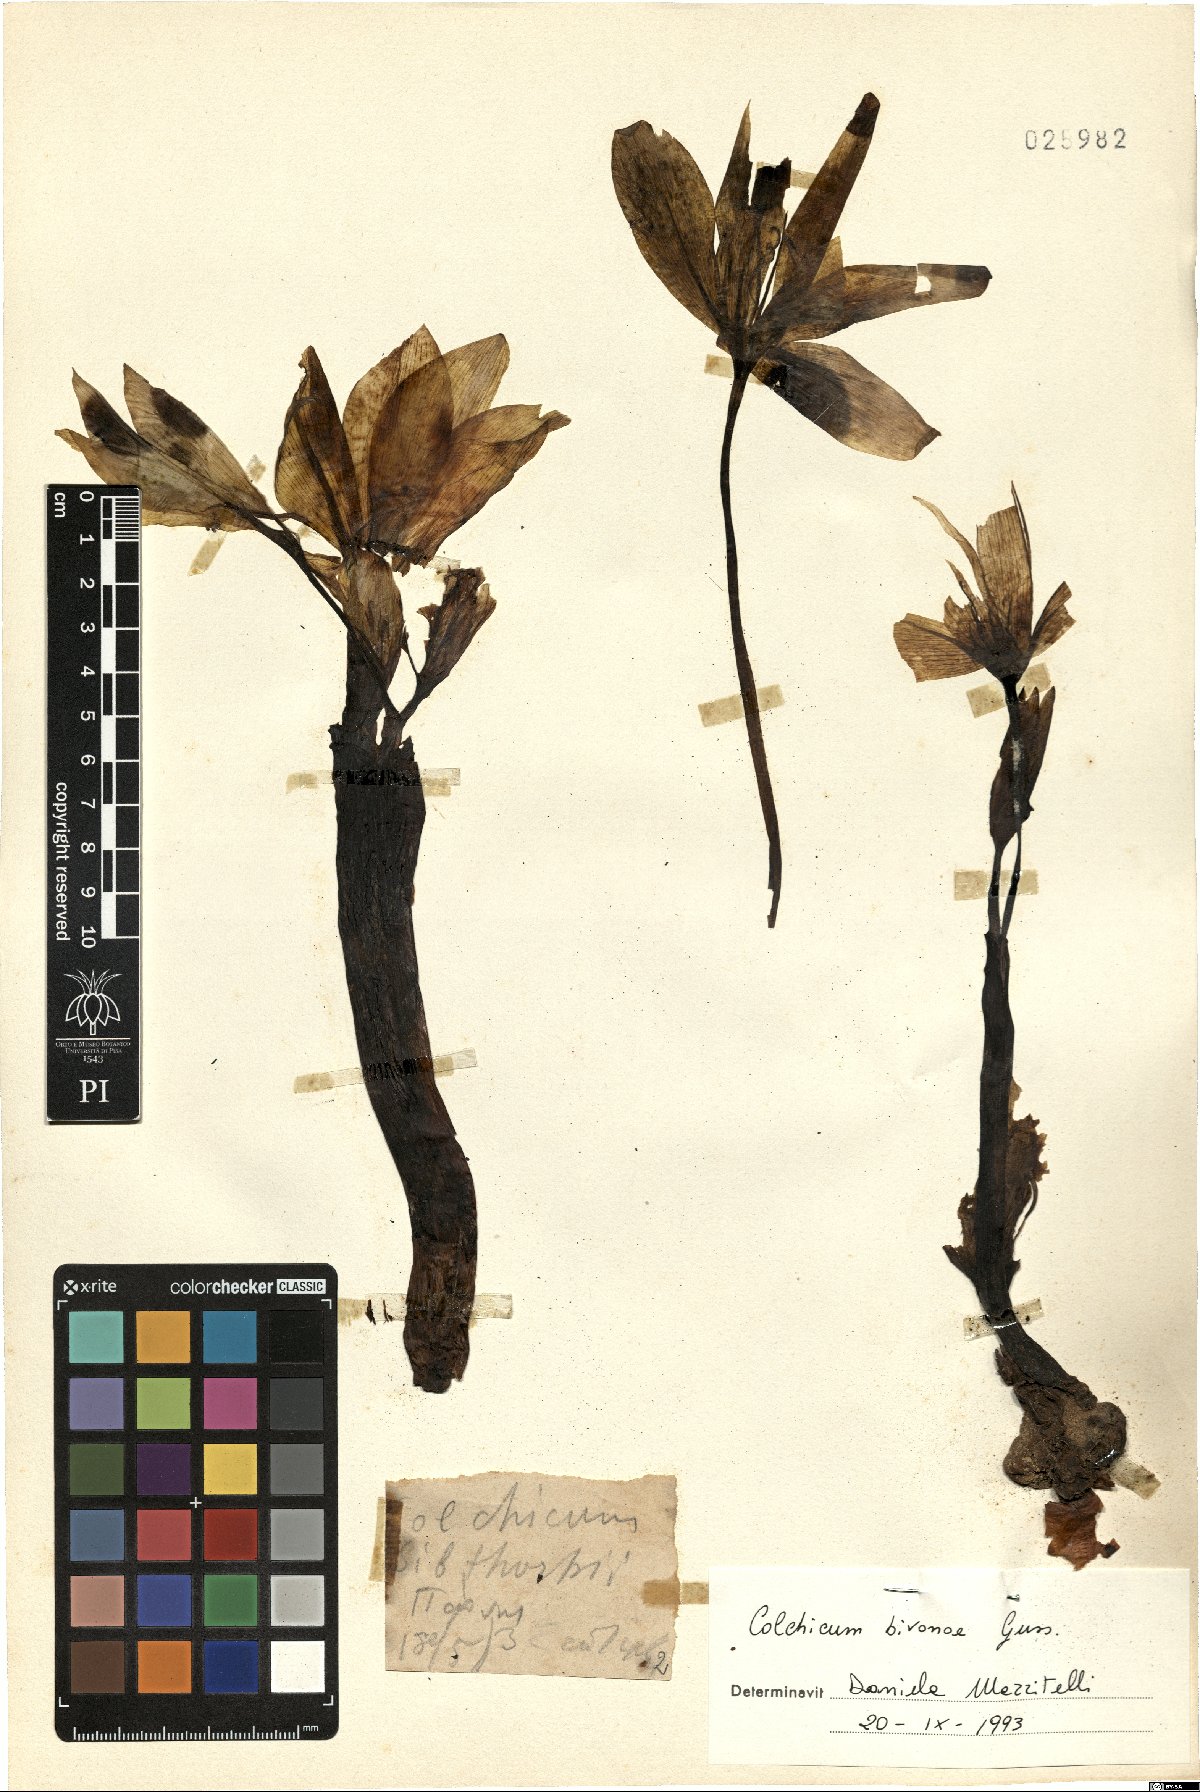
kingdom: Plantae
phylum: Tracheophyta
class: Liliopsida
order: Liliales
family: Colchicaceae
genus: Colchicum
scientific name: Colchicum bivonae
